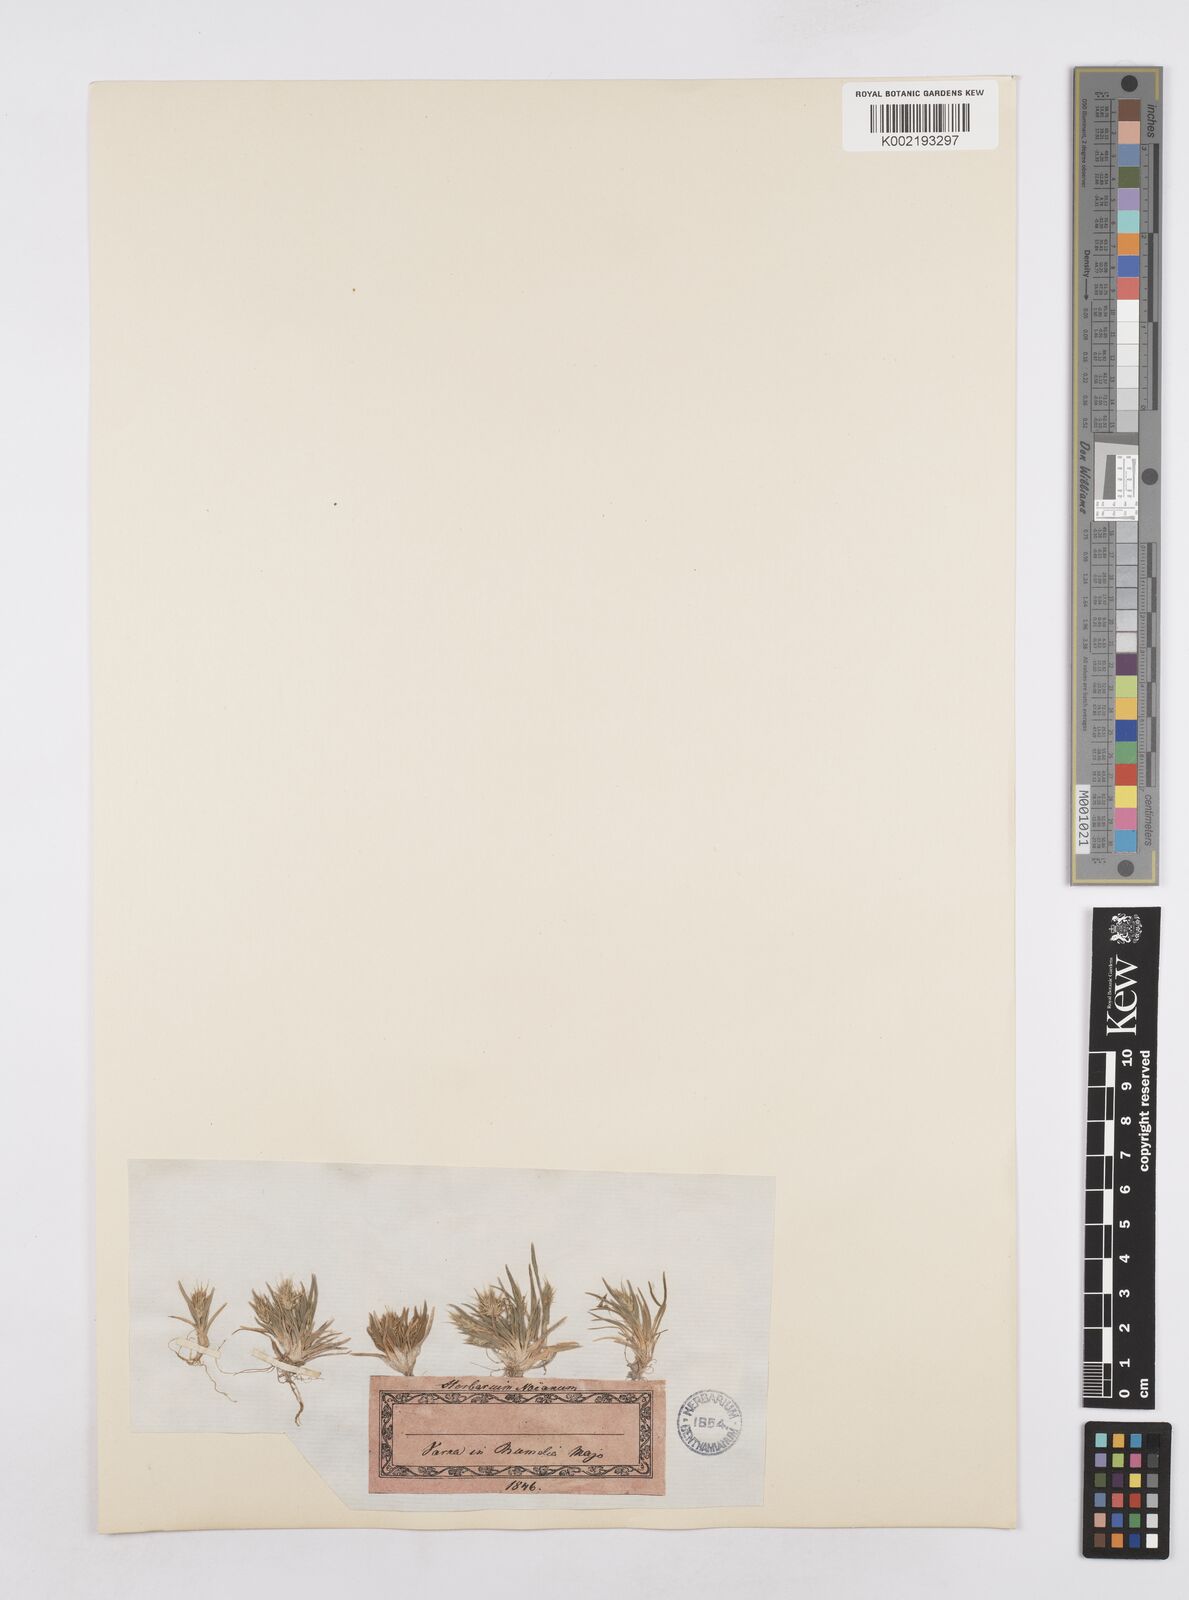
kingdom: Plantae
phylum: Tracheophyta
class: Liliopsida
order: Poales
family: Poaceae
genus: Echinaria
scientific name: Echinaria capitata
